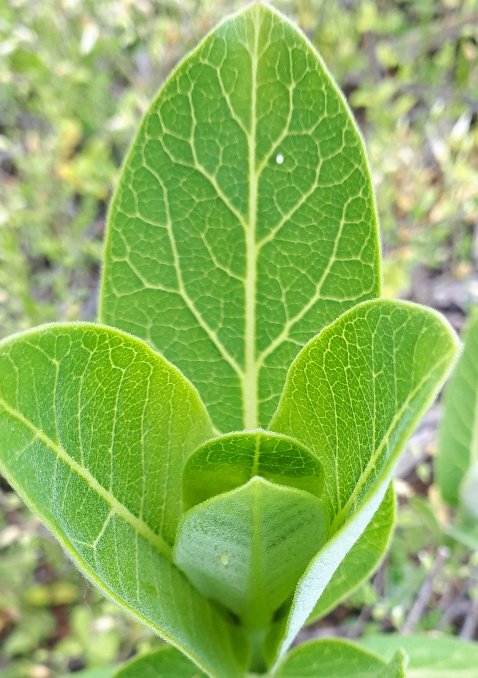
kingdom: Animalia
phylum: Arthropoda
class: Insecta
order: Lepidoptera
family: Nymphalidae
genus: Danaus
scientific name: Danaus plexippus
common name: Monarch
